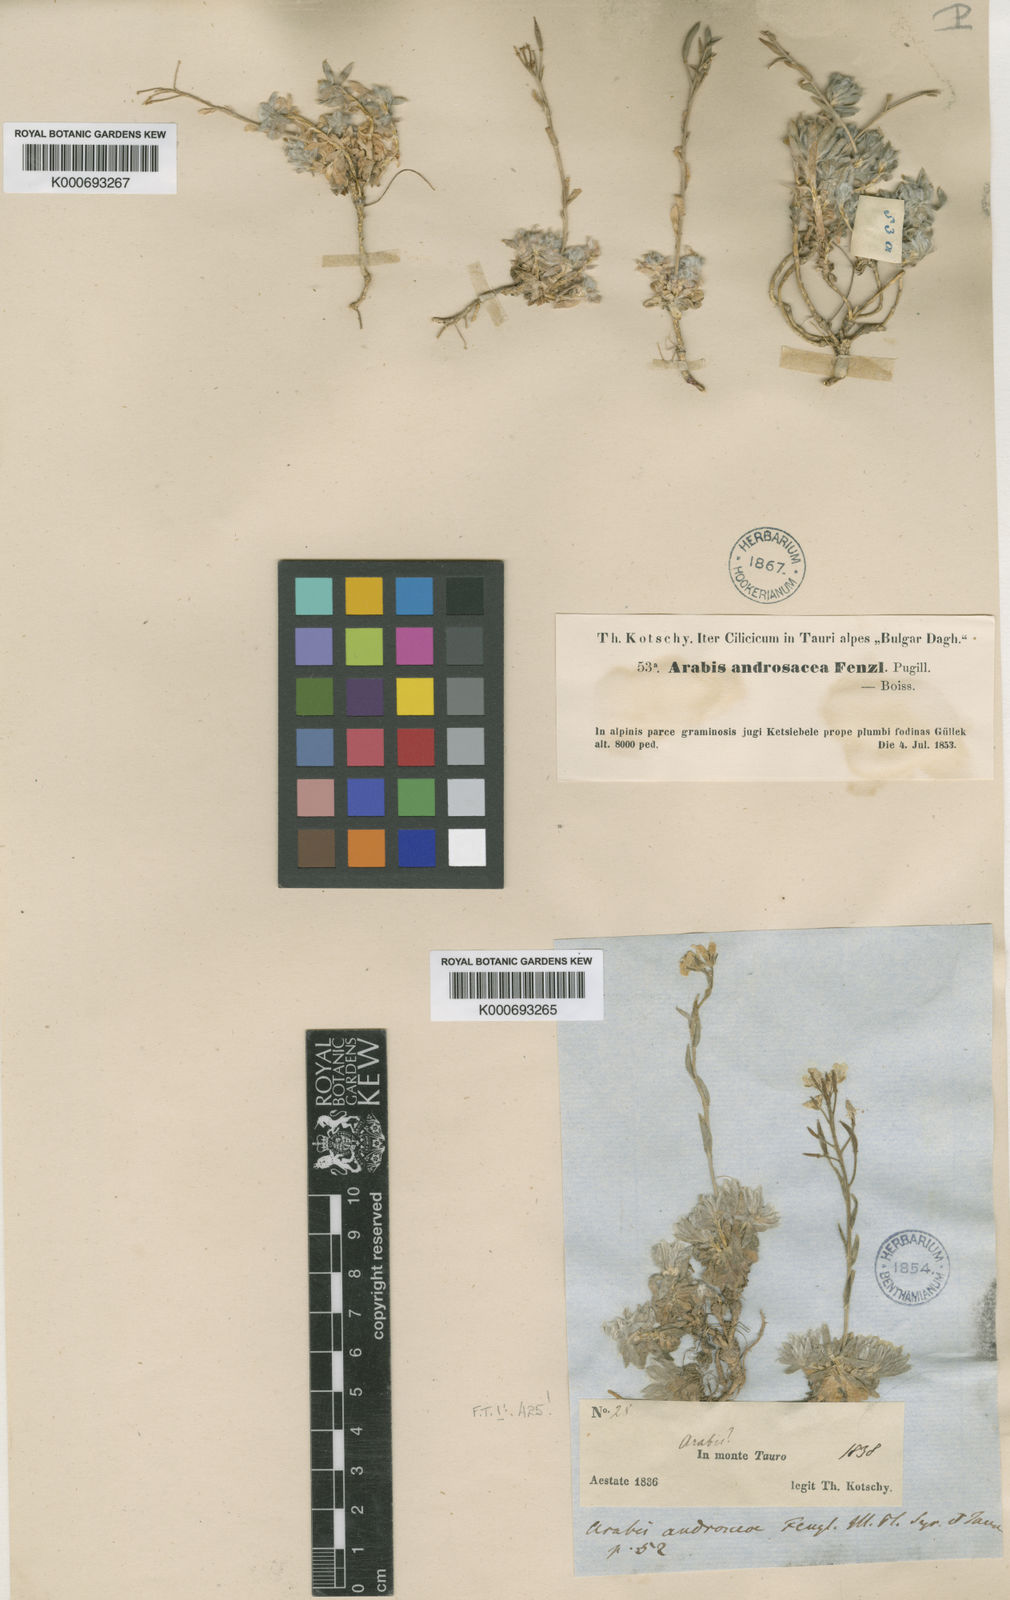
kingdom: Plantae
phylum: Tracheophyta
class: Magnoliopsida
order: Brassicales
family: Brassicaceae
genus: Arabis
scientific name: Arabis androsacea
